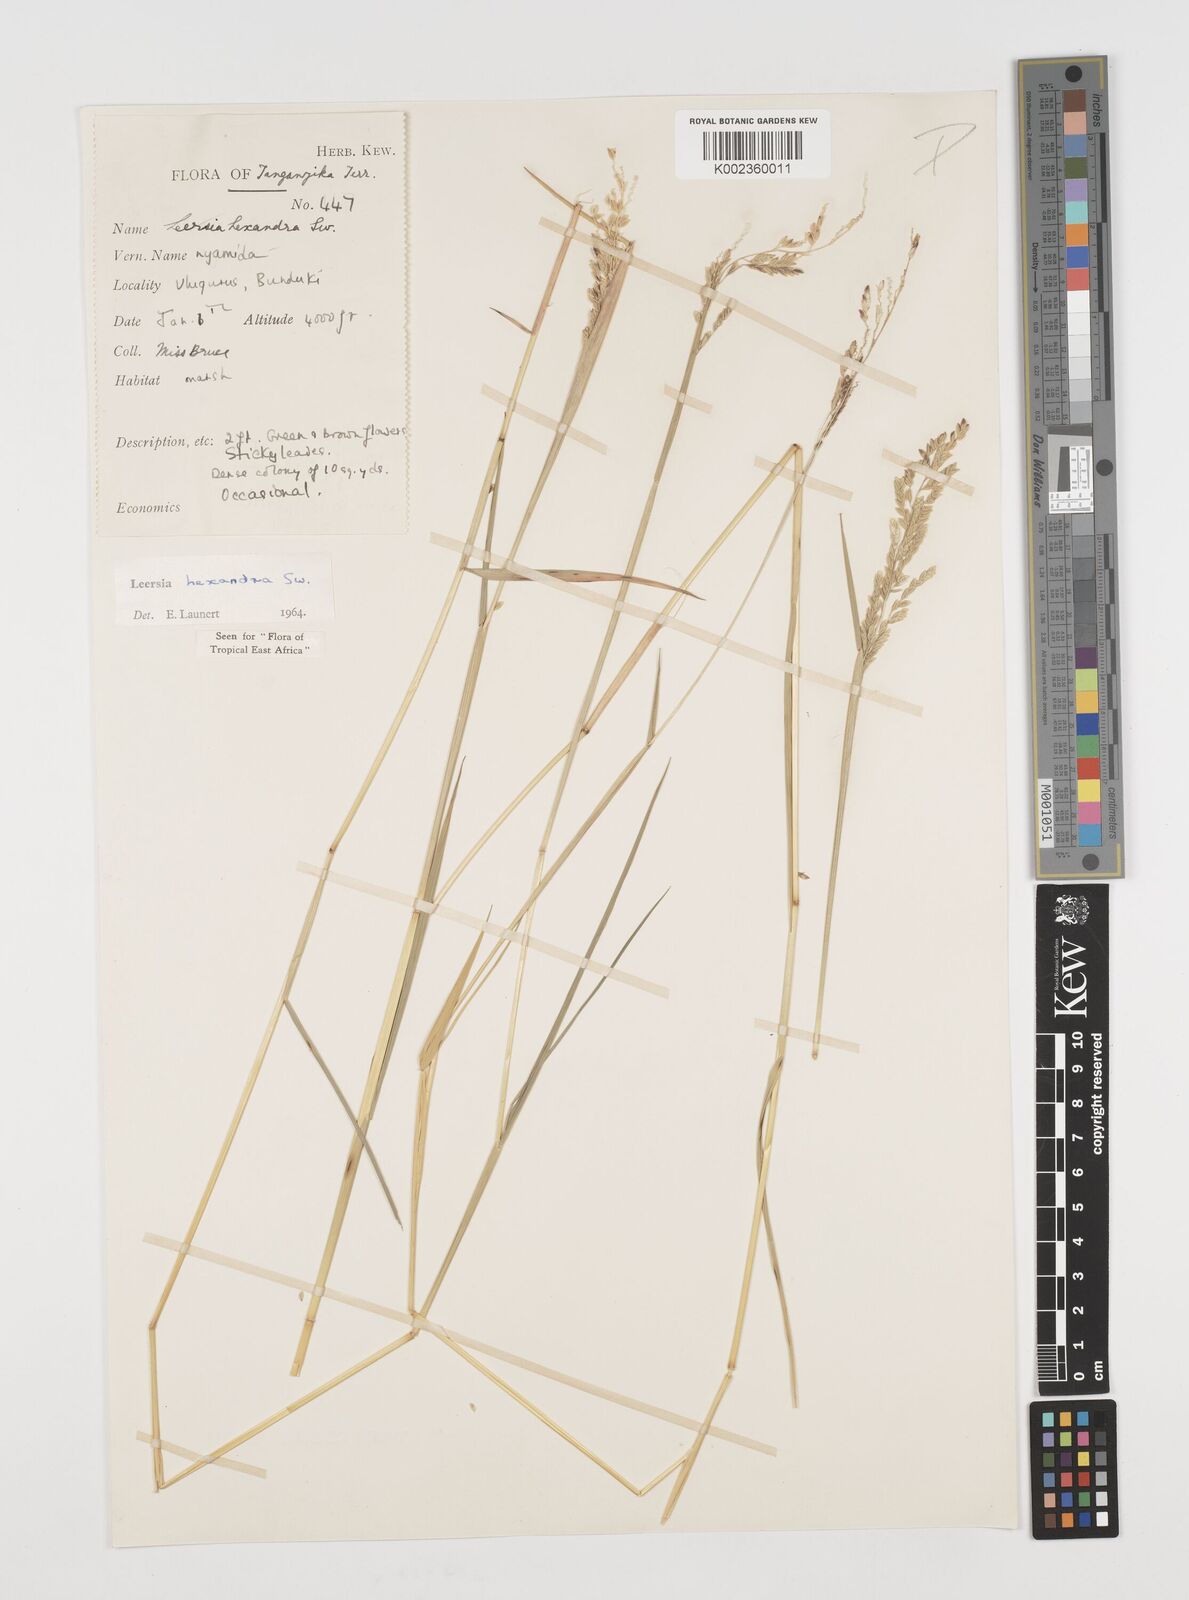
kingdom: Plantae
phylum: Tracheophyta
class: Liliopsida
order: Poales
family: Poaceae
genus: Leersia
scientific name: Leersia hexandra
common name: Southern cut grass
